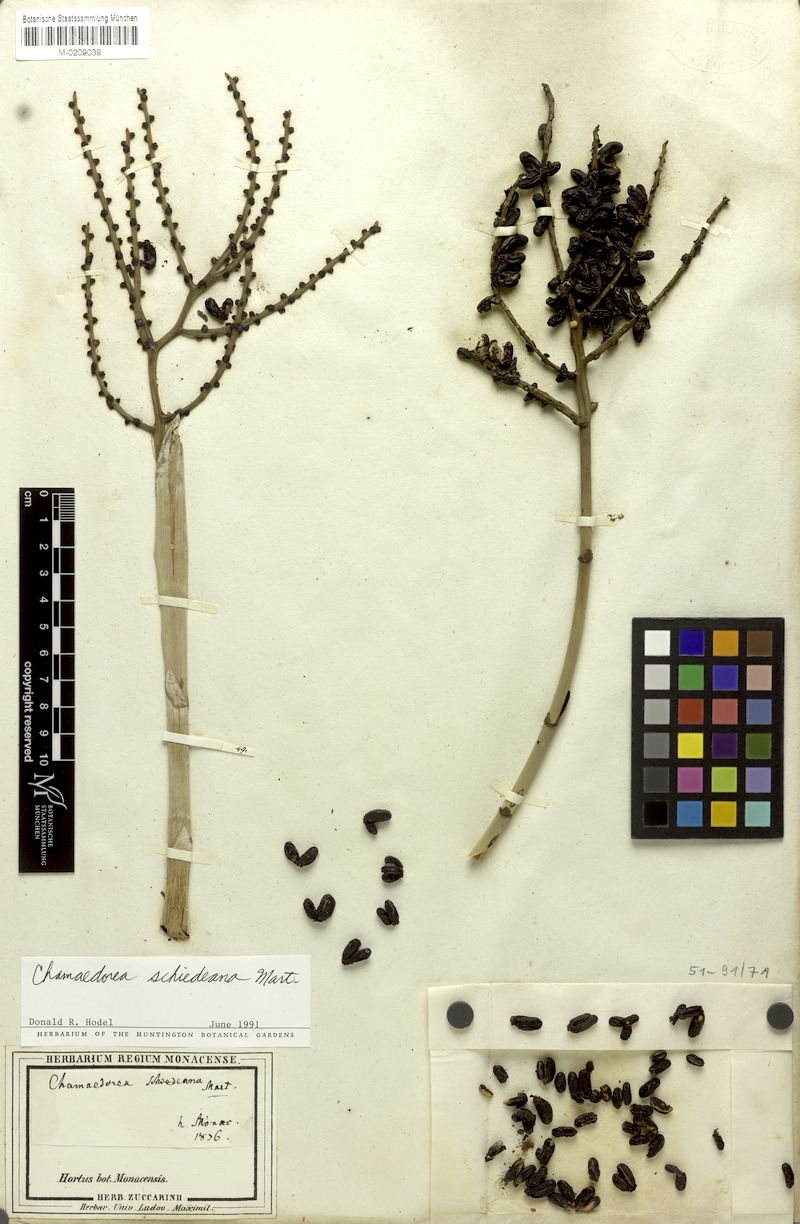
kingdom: Plantae
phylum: Tracheophyta
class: Liliopsida
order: Arecales
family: Arecaceae
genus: Chamaedorea
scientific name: Chamaedorea schiedeana
